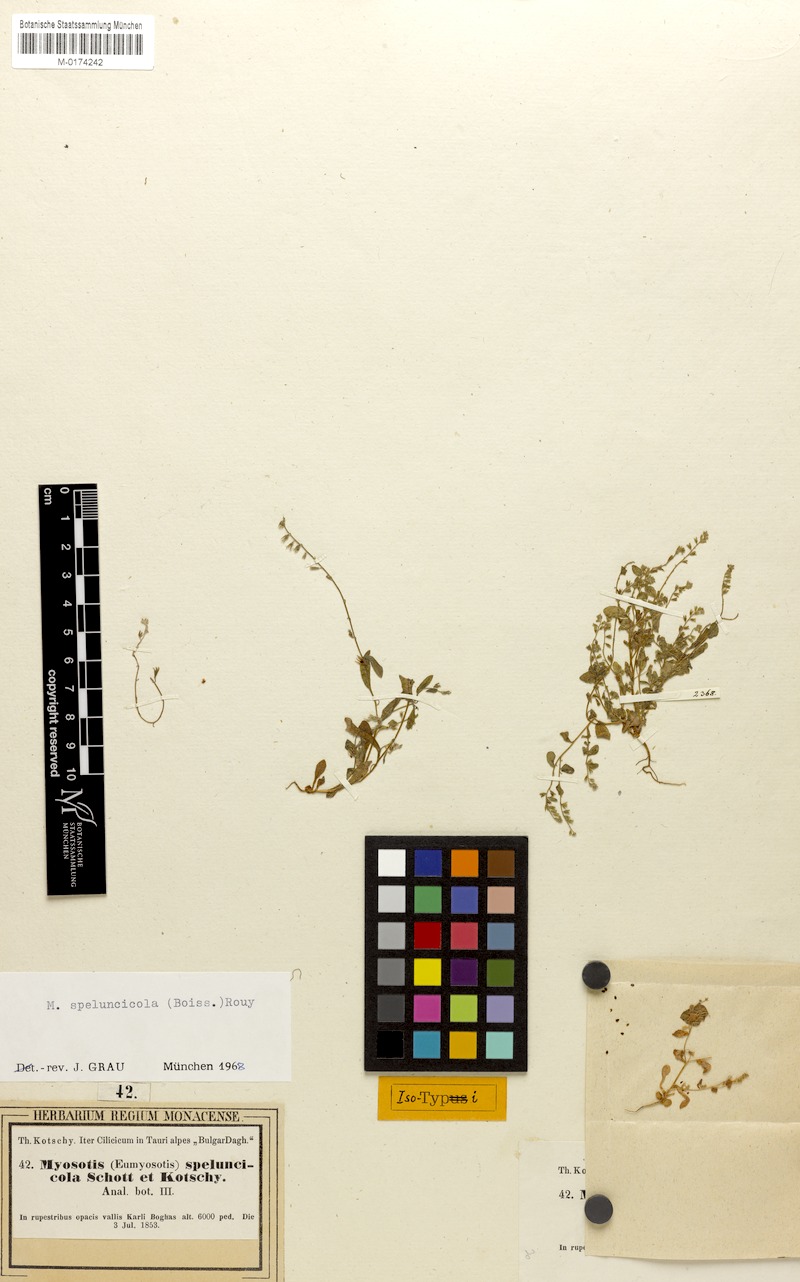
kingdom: Plantae
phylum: Tracheophyta
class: Magnoliopsida
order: Boraginales
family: Boraginaceae
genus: Myosotis
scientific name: Myosotis speluncicola
